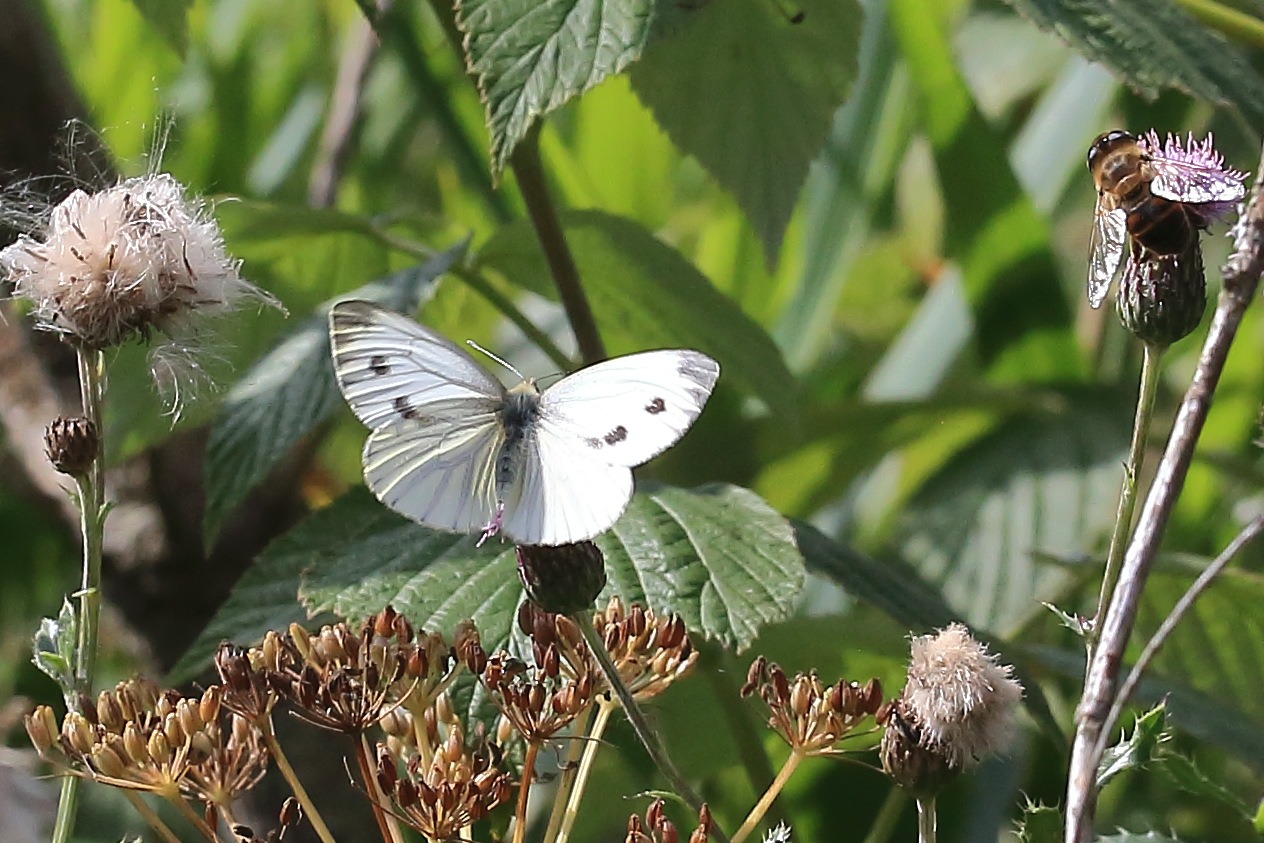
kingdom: Animalia
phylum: Arthropoda
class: Insecta
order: Lepidoptera
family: Pieridae
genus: Pieris
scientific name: Pieris napi
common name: Grønåret kålsommerfugl
